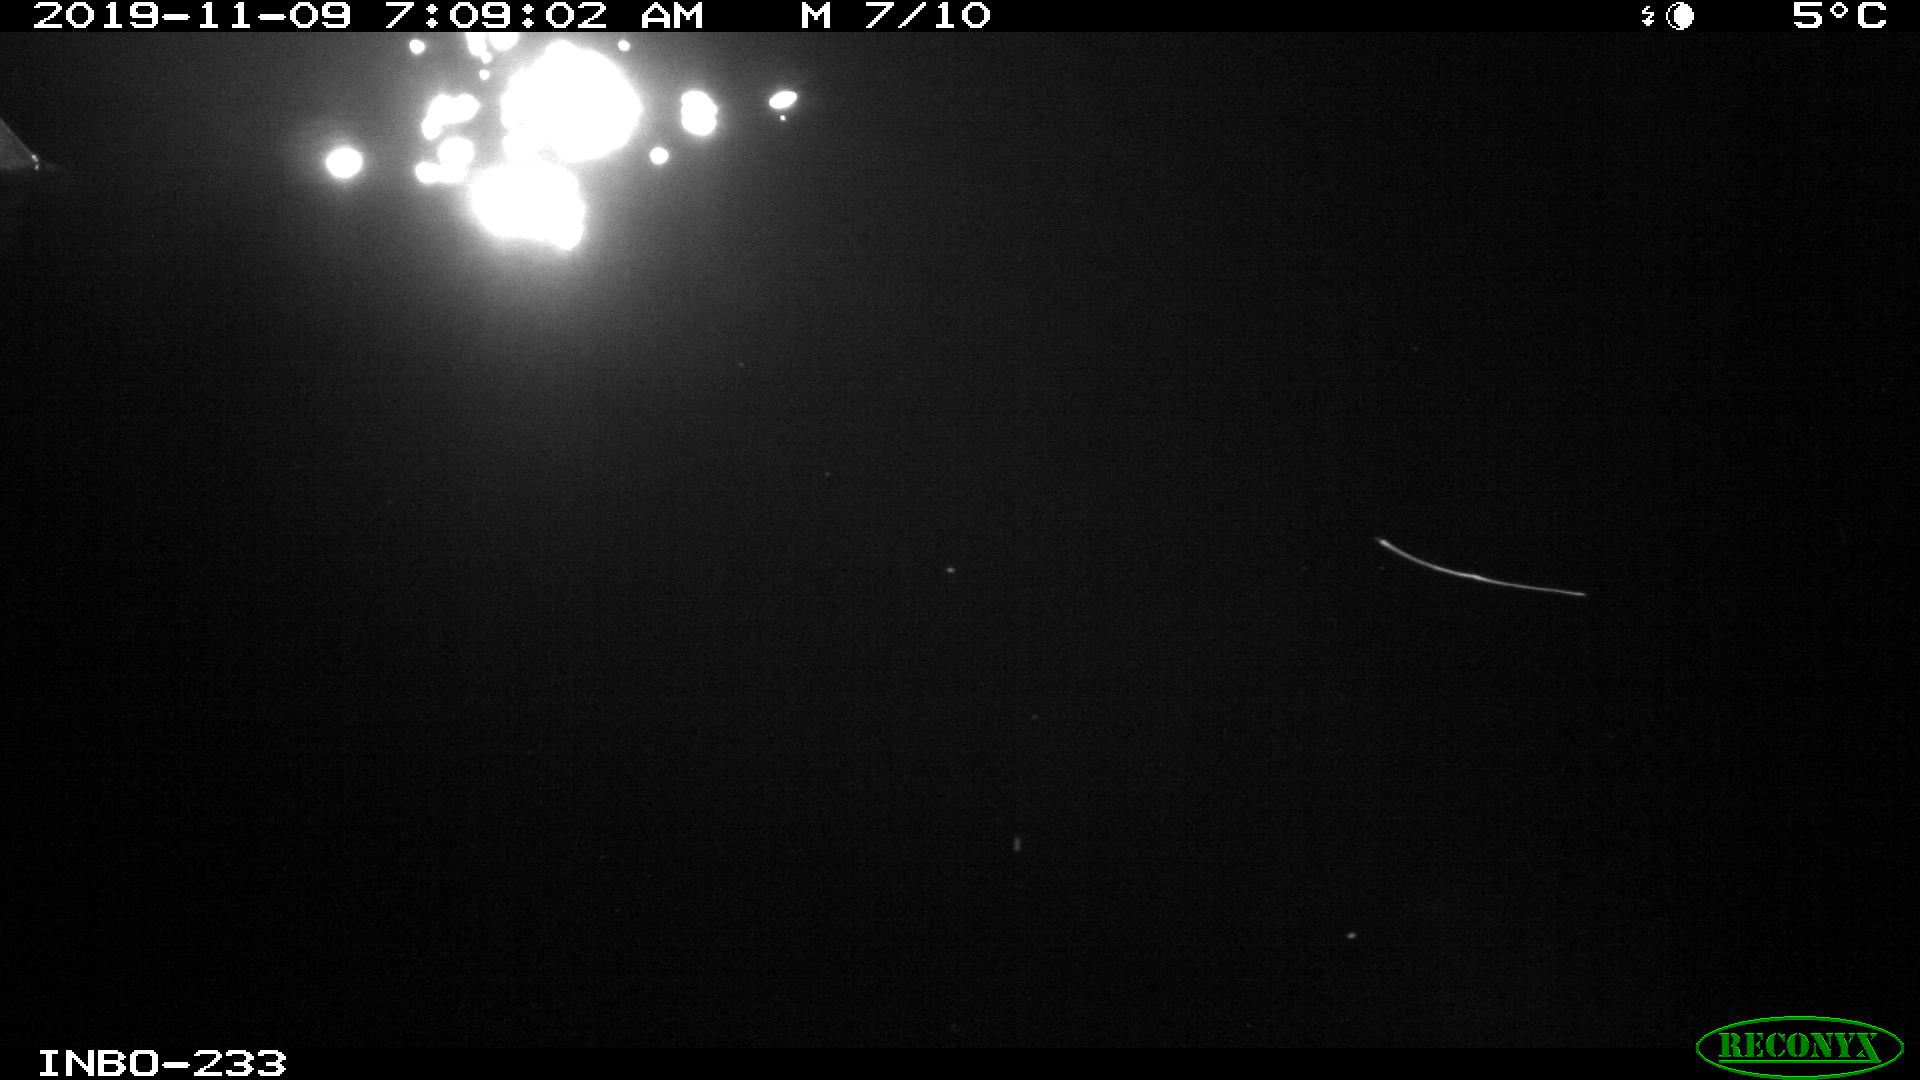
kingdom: Animalia
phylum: Chordata
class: Aves
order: Anseriformes
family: Anatidae
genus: Anas
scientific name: Anas platyrhynchos
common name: Mallard
